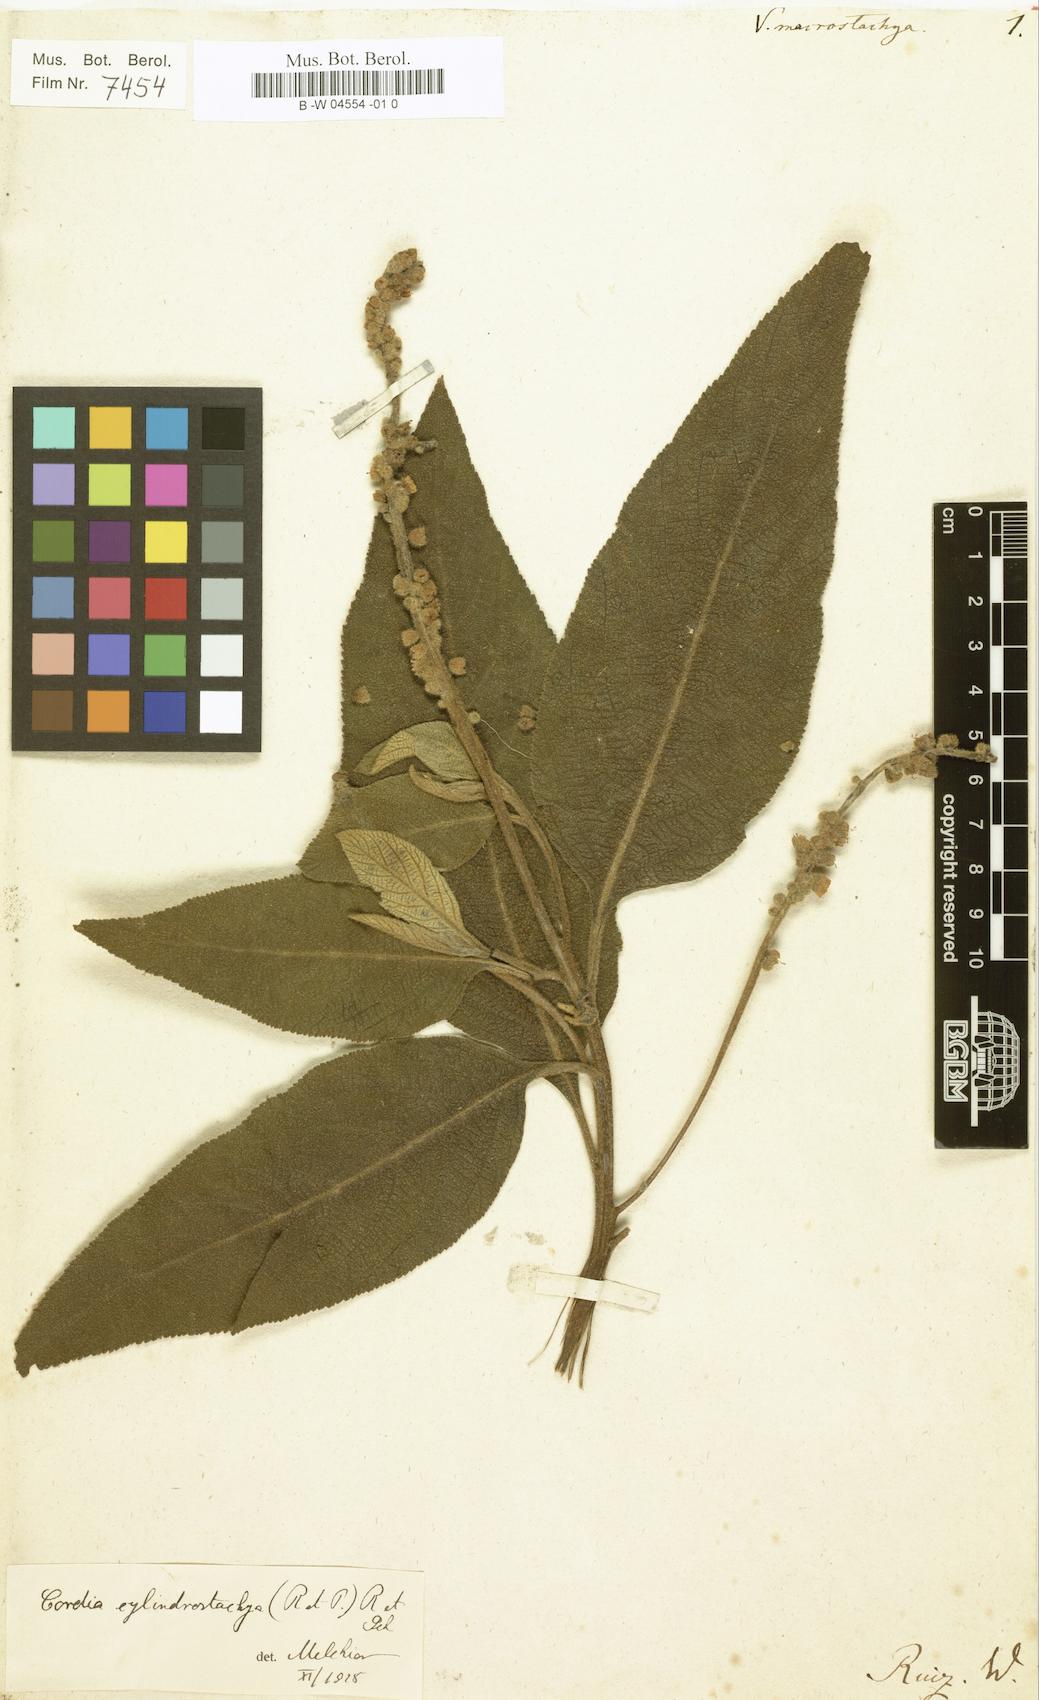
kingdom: Plantae
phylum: Tracheophyta
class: Magnoliopsida
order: Boraginales
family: Cordiaceae
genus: Varronia
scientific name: Varronia
